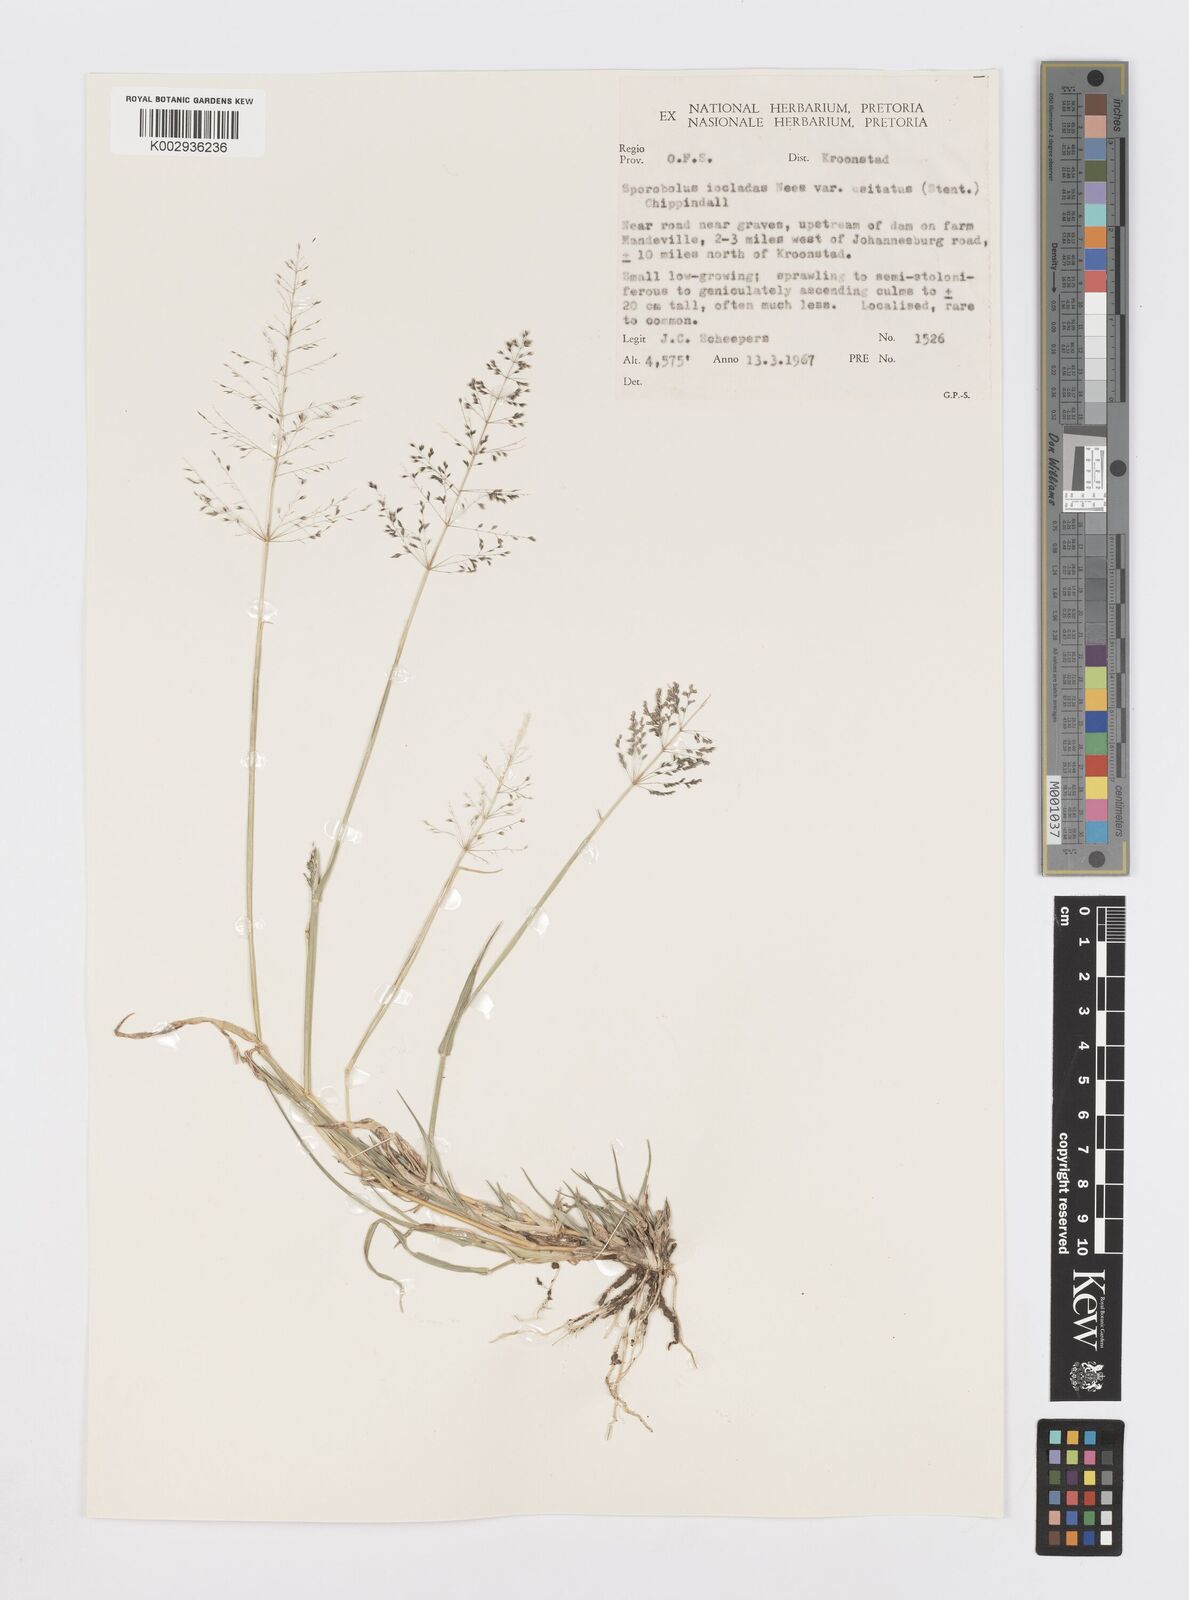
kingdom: Plantae
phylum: Tracheophyta
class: Liliopsida
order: Poales
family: Poaceae
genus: Sporobolus
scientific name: Sporobolus ioclados
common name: Pan dropseed
